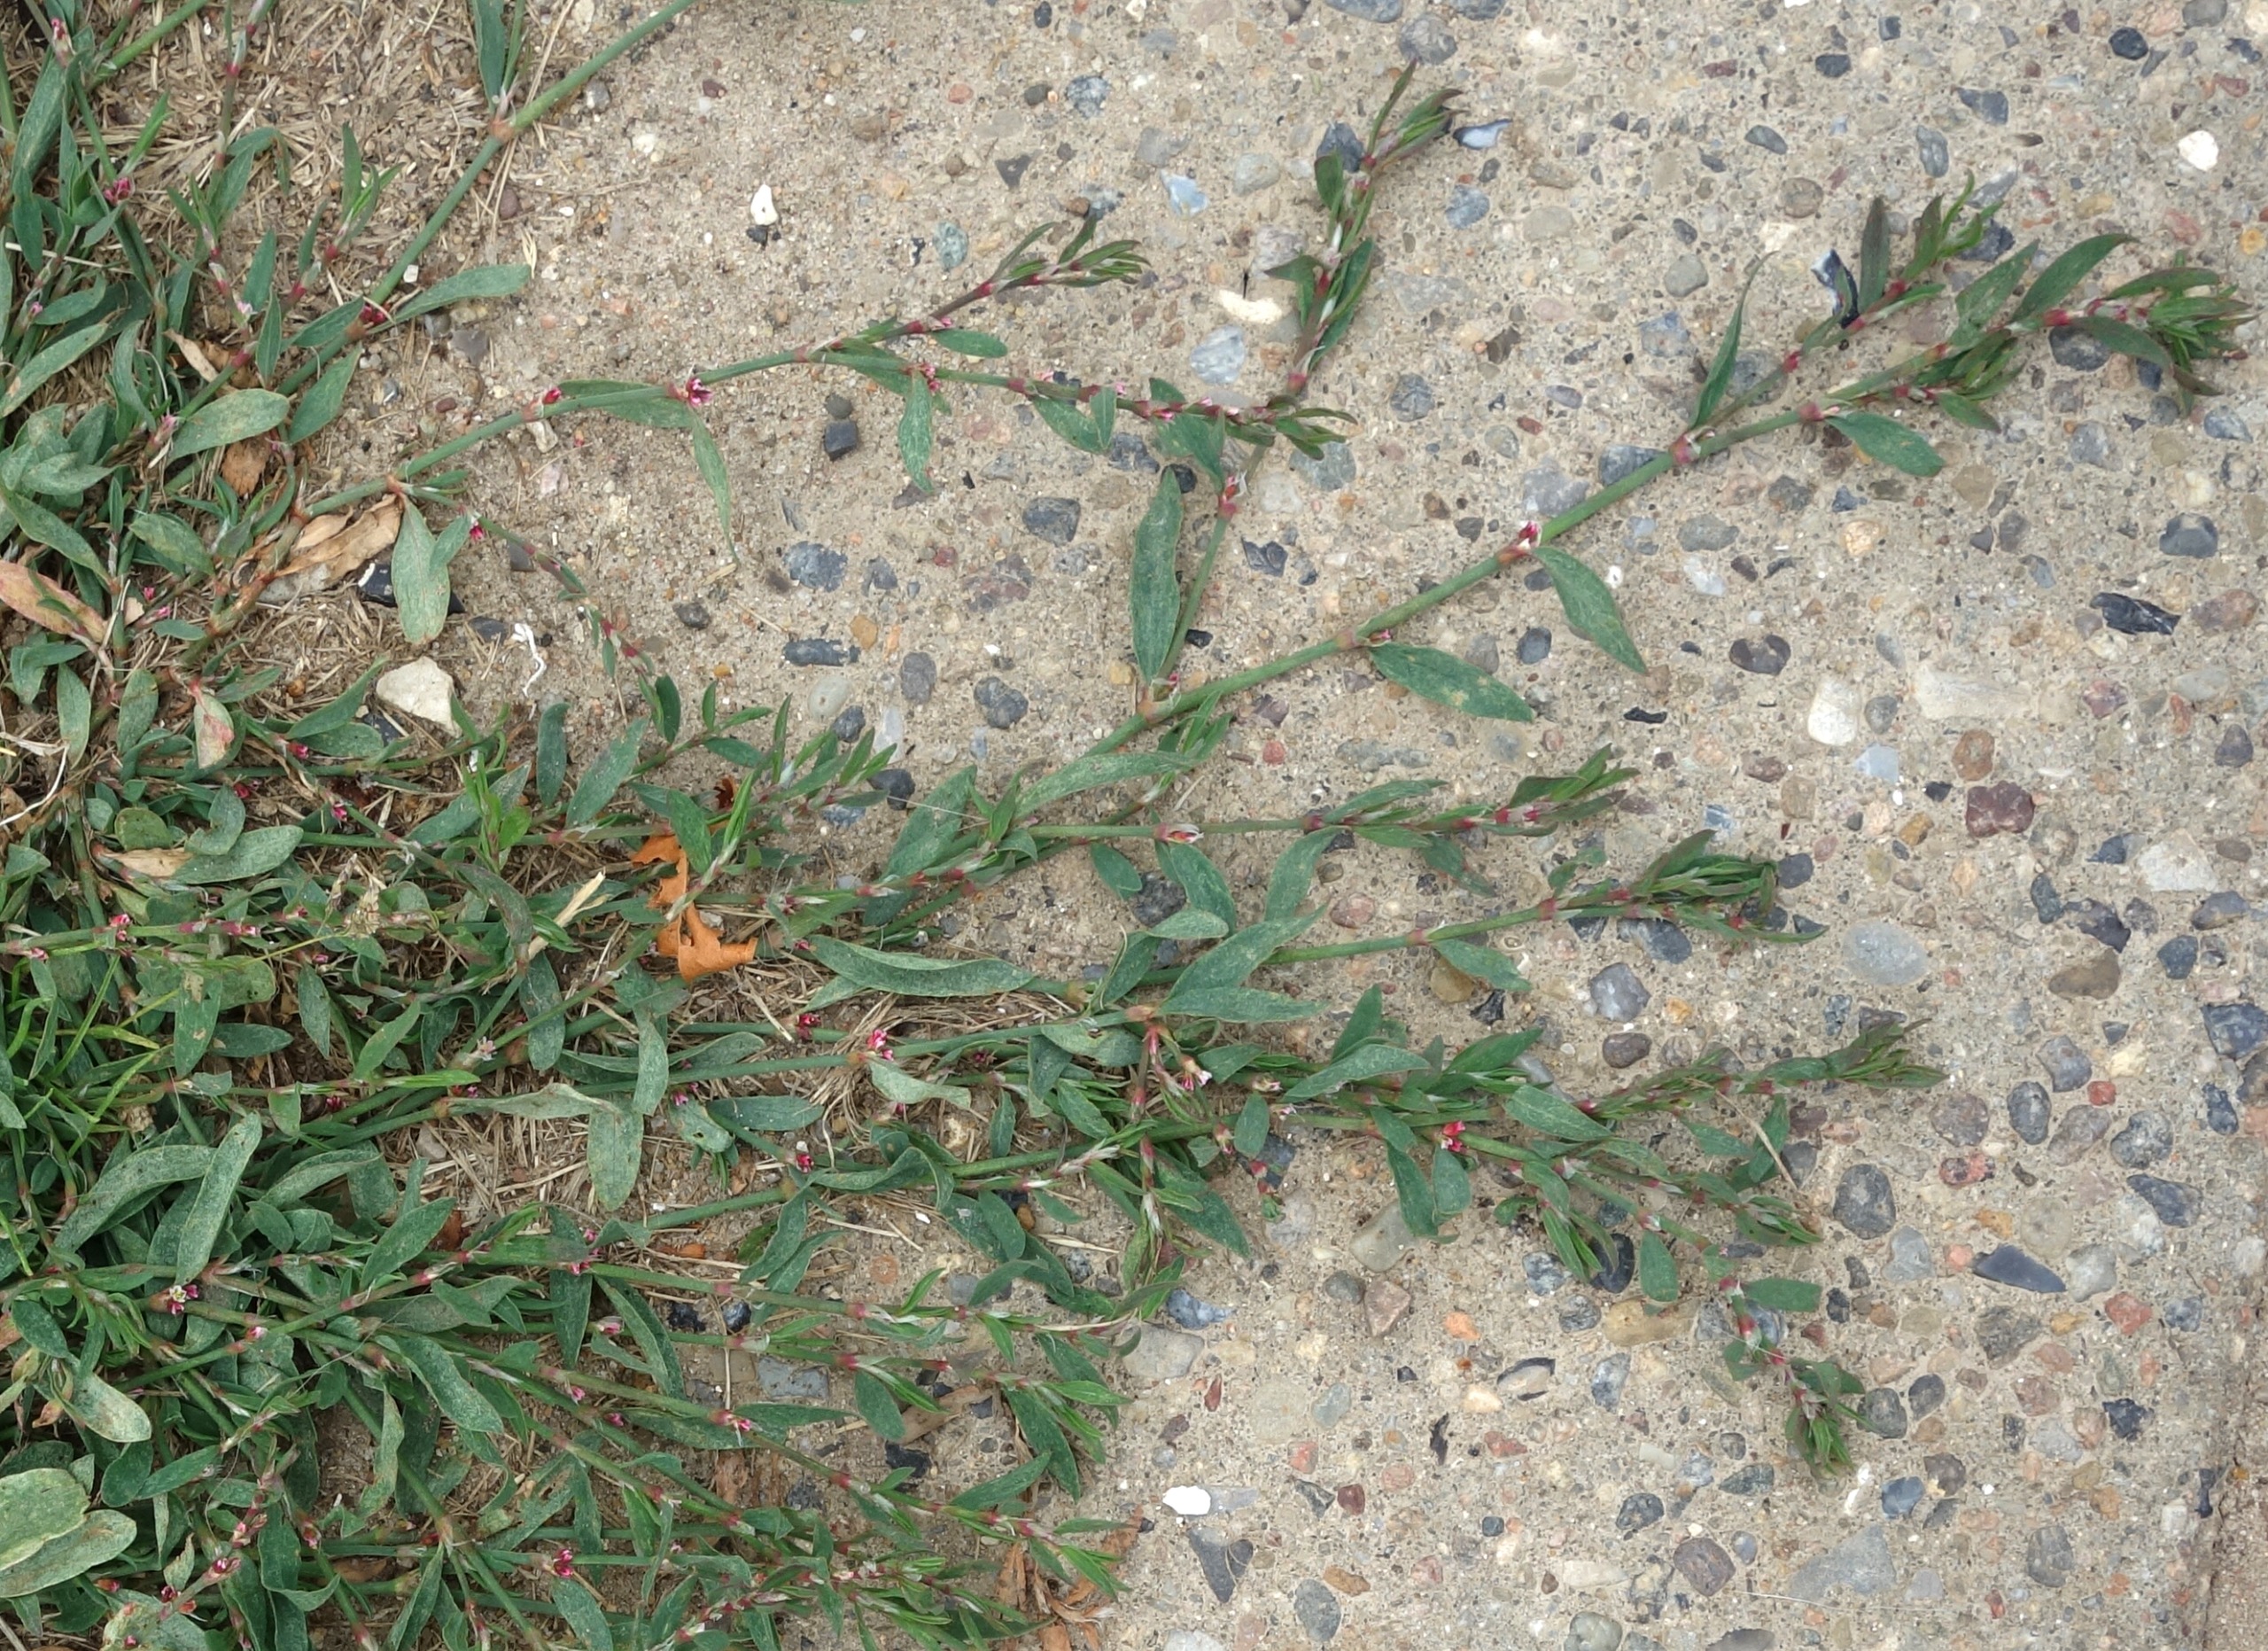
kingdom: Plantae
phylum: Tracheophyta
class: Magnoliopsida
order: Caryophyllales
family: Polygonaceae
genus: Polygonum
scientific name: Polygonum aviculare
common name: Vej-pileurt
